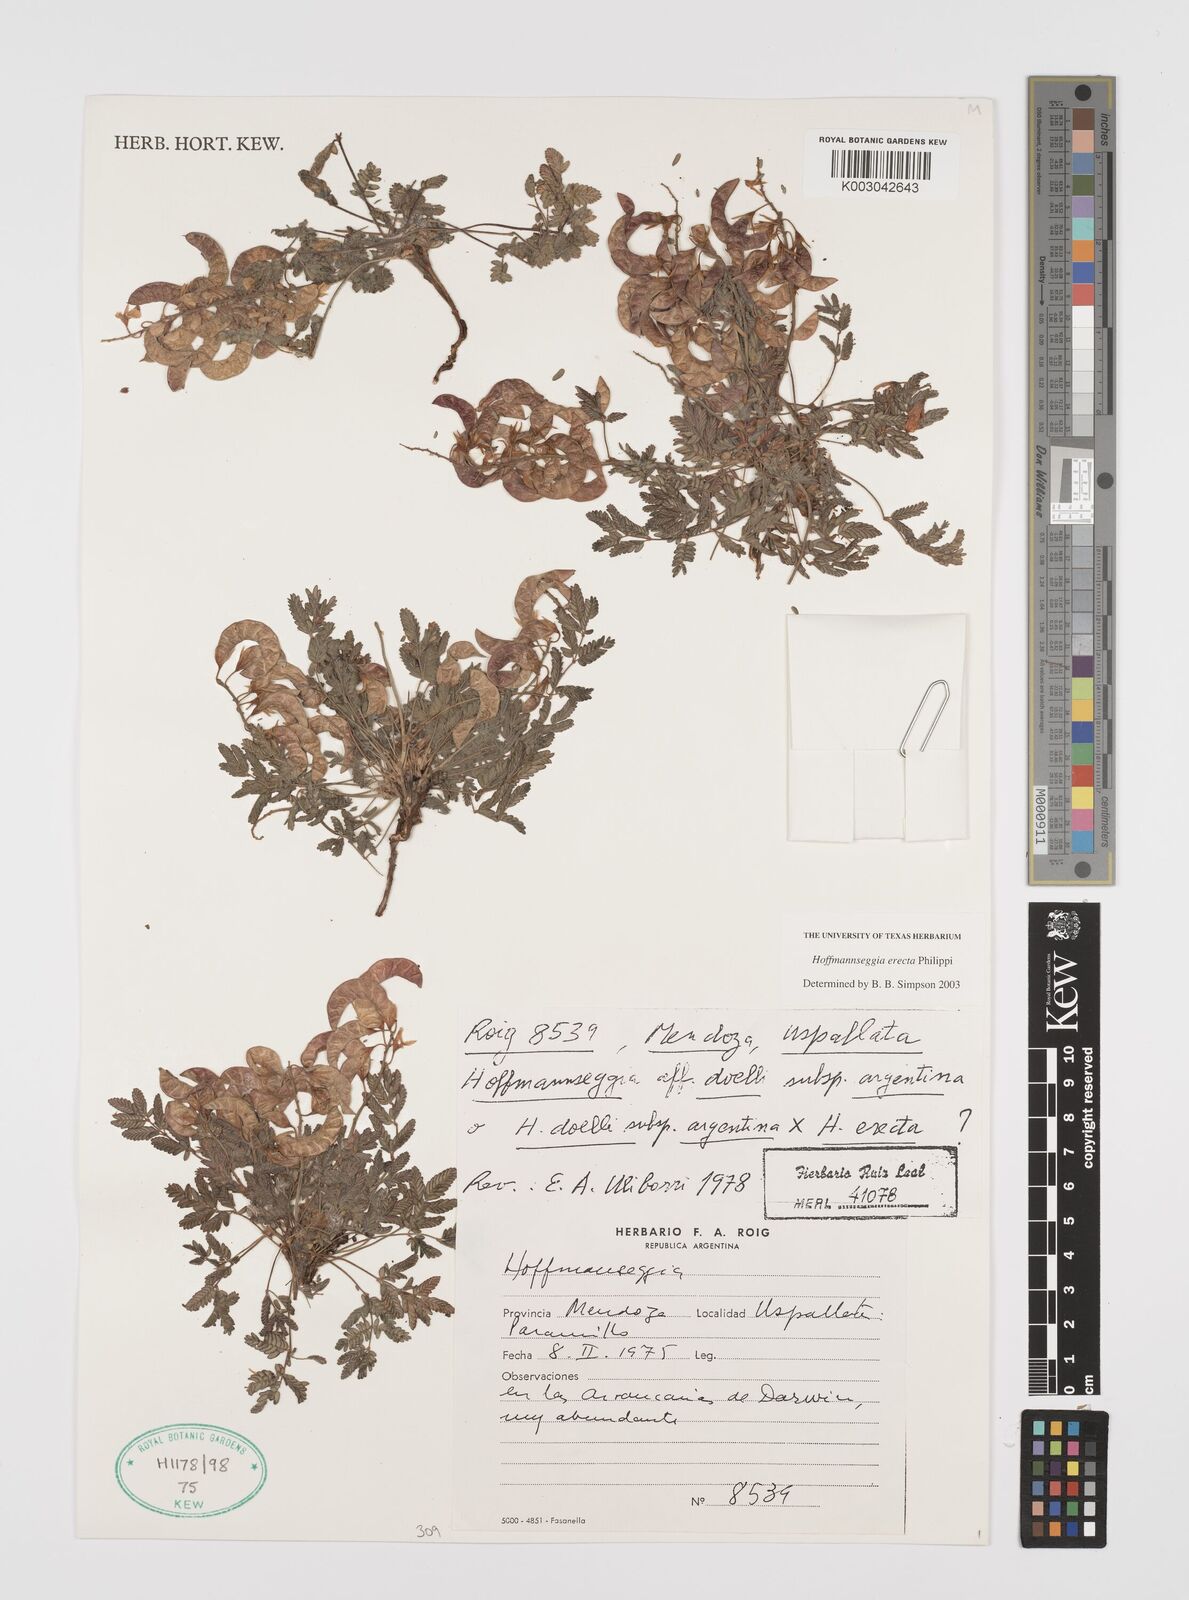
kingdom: Plantae
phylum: Tracheophyta
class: Magnoliopsida
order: Fabales
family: Fabaceae
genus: Hoffmannseggia
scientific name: Hoffmannseggia erecta
